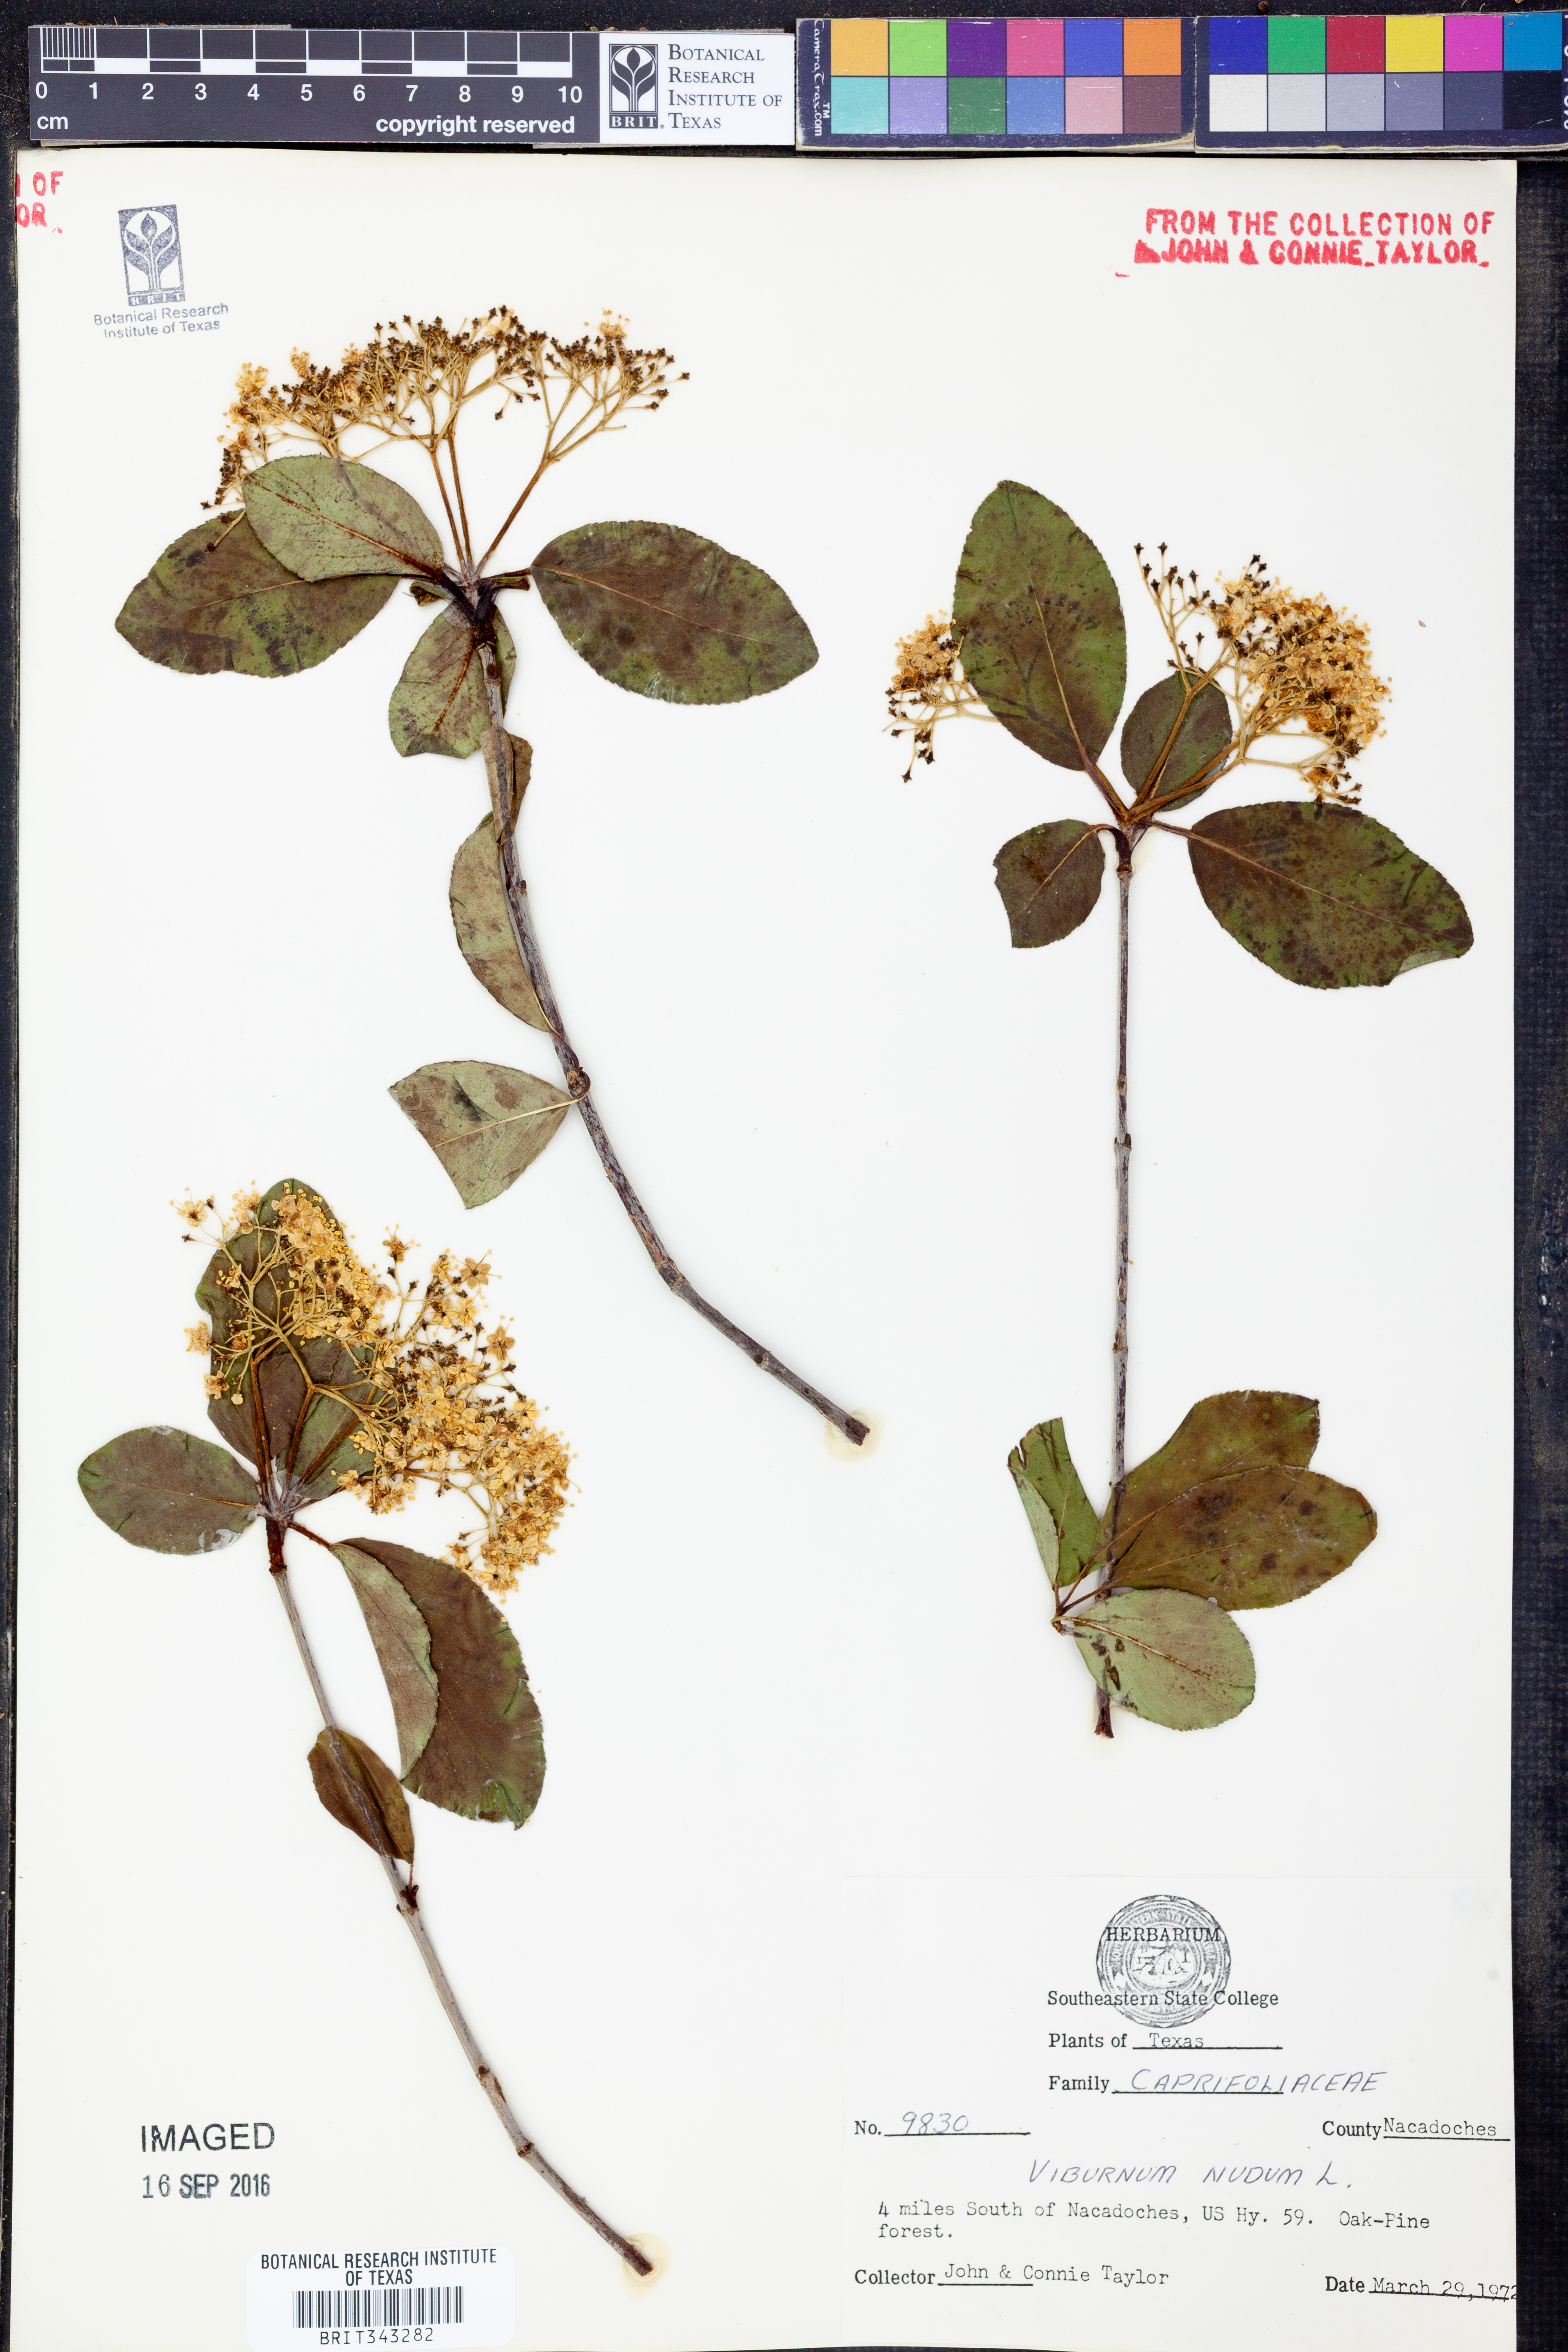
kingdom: Plantae
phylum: Tracheophyta
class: Magnoliopsida
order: Dipsacales
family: Viburnaceae
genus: Viburnum
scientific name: Viburnum nudum
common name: Possum haw
